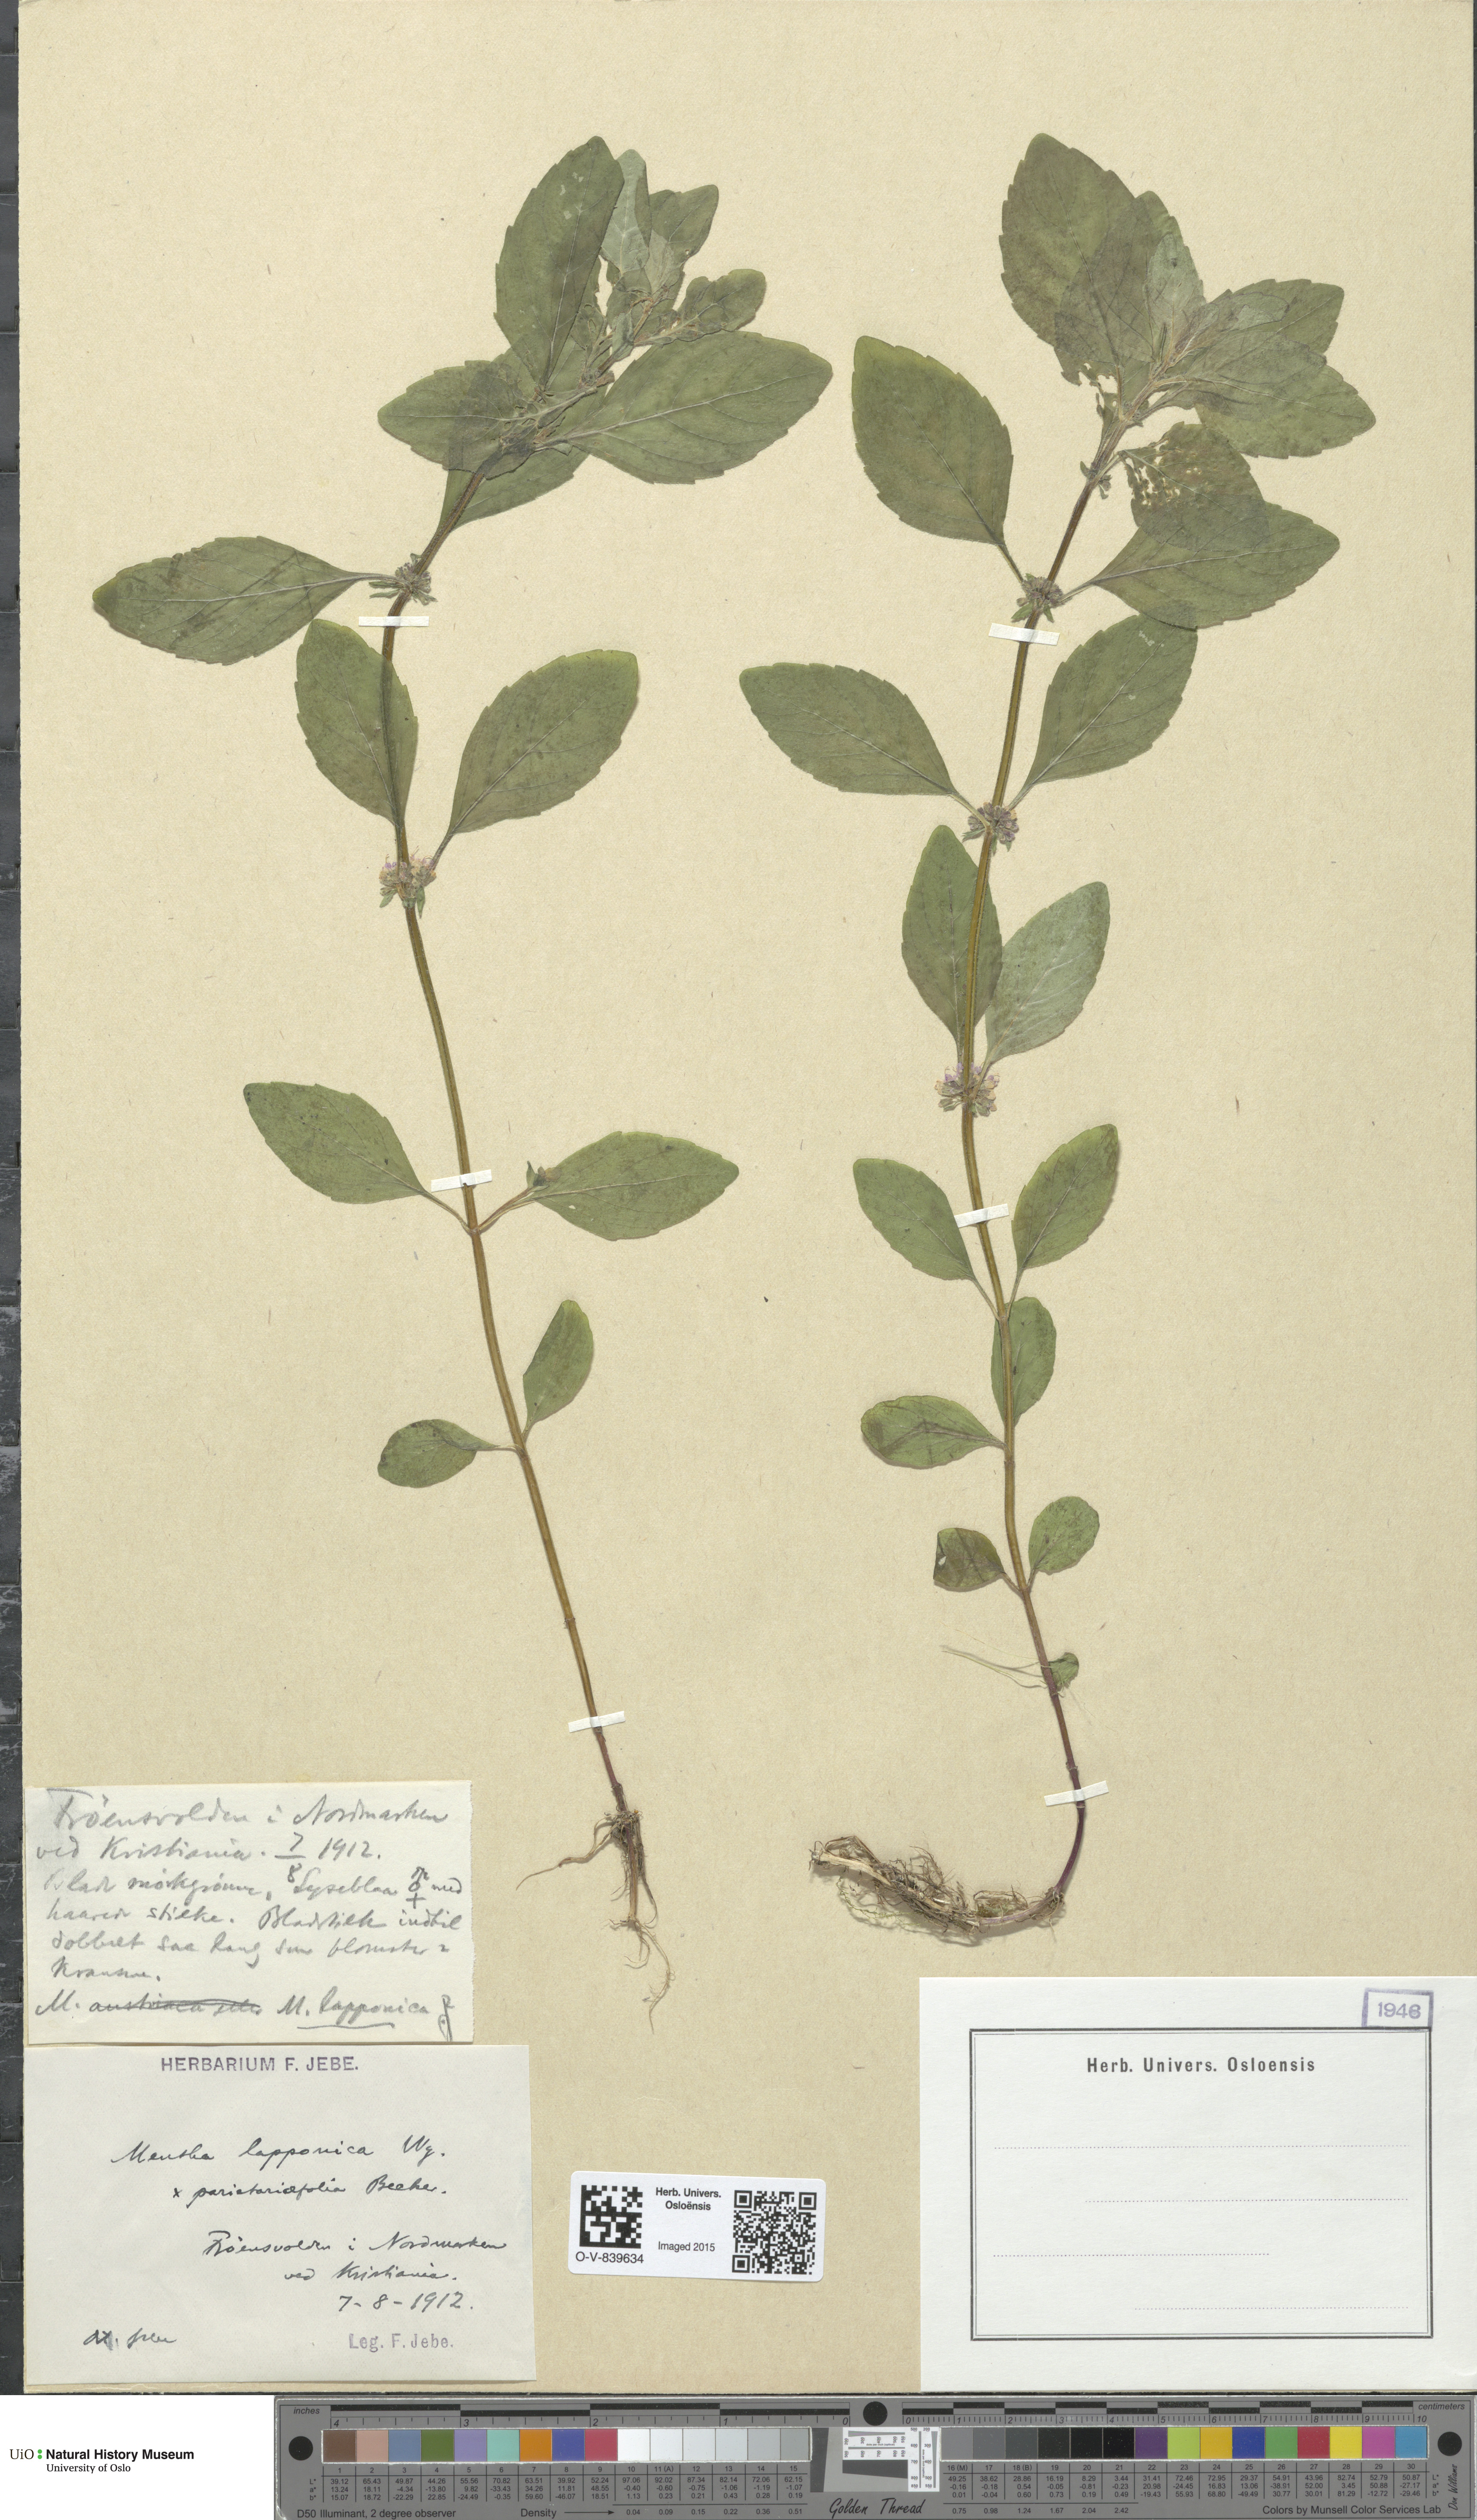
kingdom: Plantae
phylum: Tracheophyta
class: Magnoliopsida
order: Lamiales
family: Lamiaceae
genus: Mentha
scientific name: Mentha arvensis
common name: Corn mint
